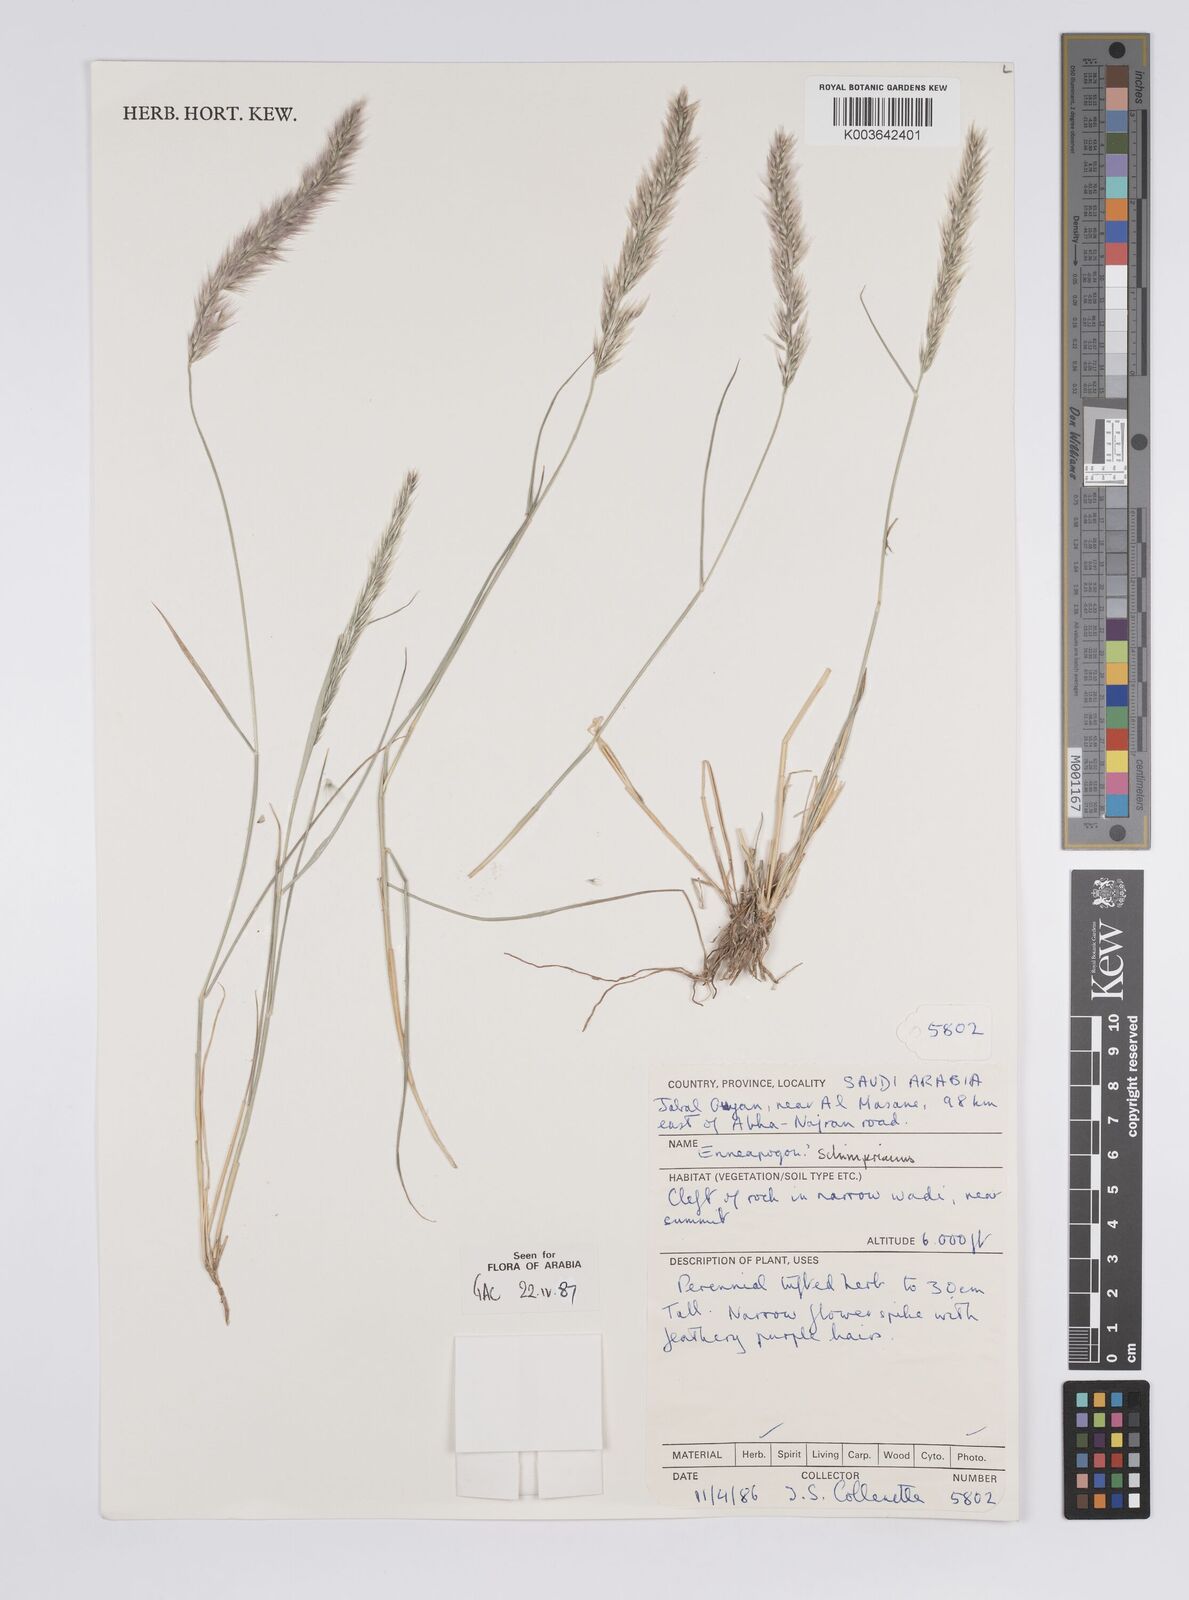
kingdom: Plantae
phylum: Tracheophyta
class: Liliopsida
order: Poales
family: Poaceae
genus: Enneapogon
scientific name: Enneapogon persicus
